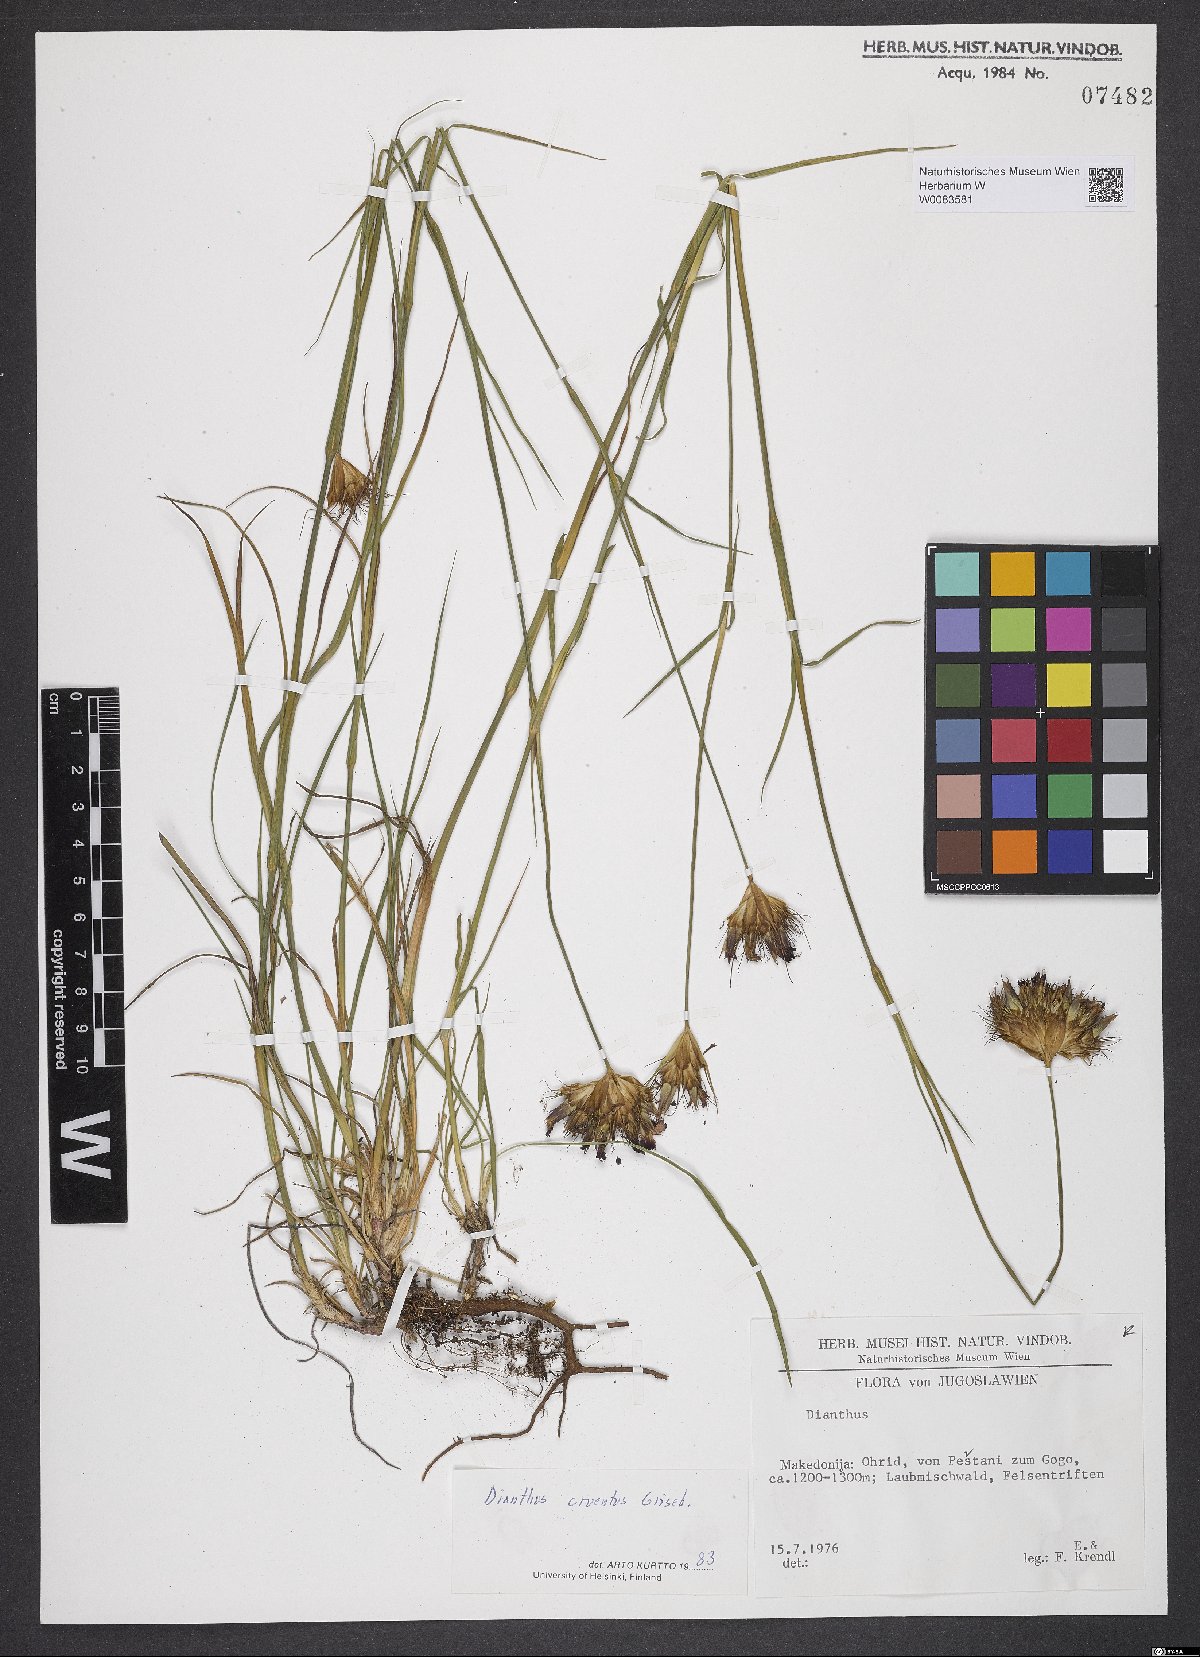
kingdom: Plantae
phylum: Tracheophyta
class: Magnoliopsida
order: Caryophyllales
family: Caryophyllaceae
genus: Dianthus
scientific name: Dianthus cruentus
